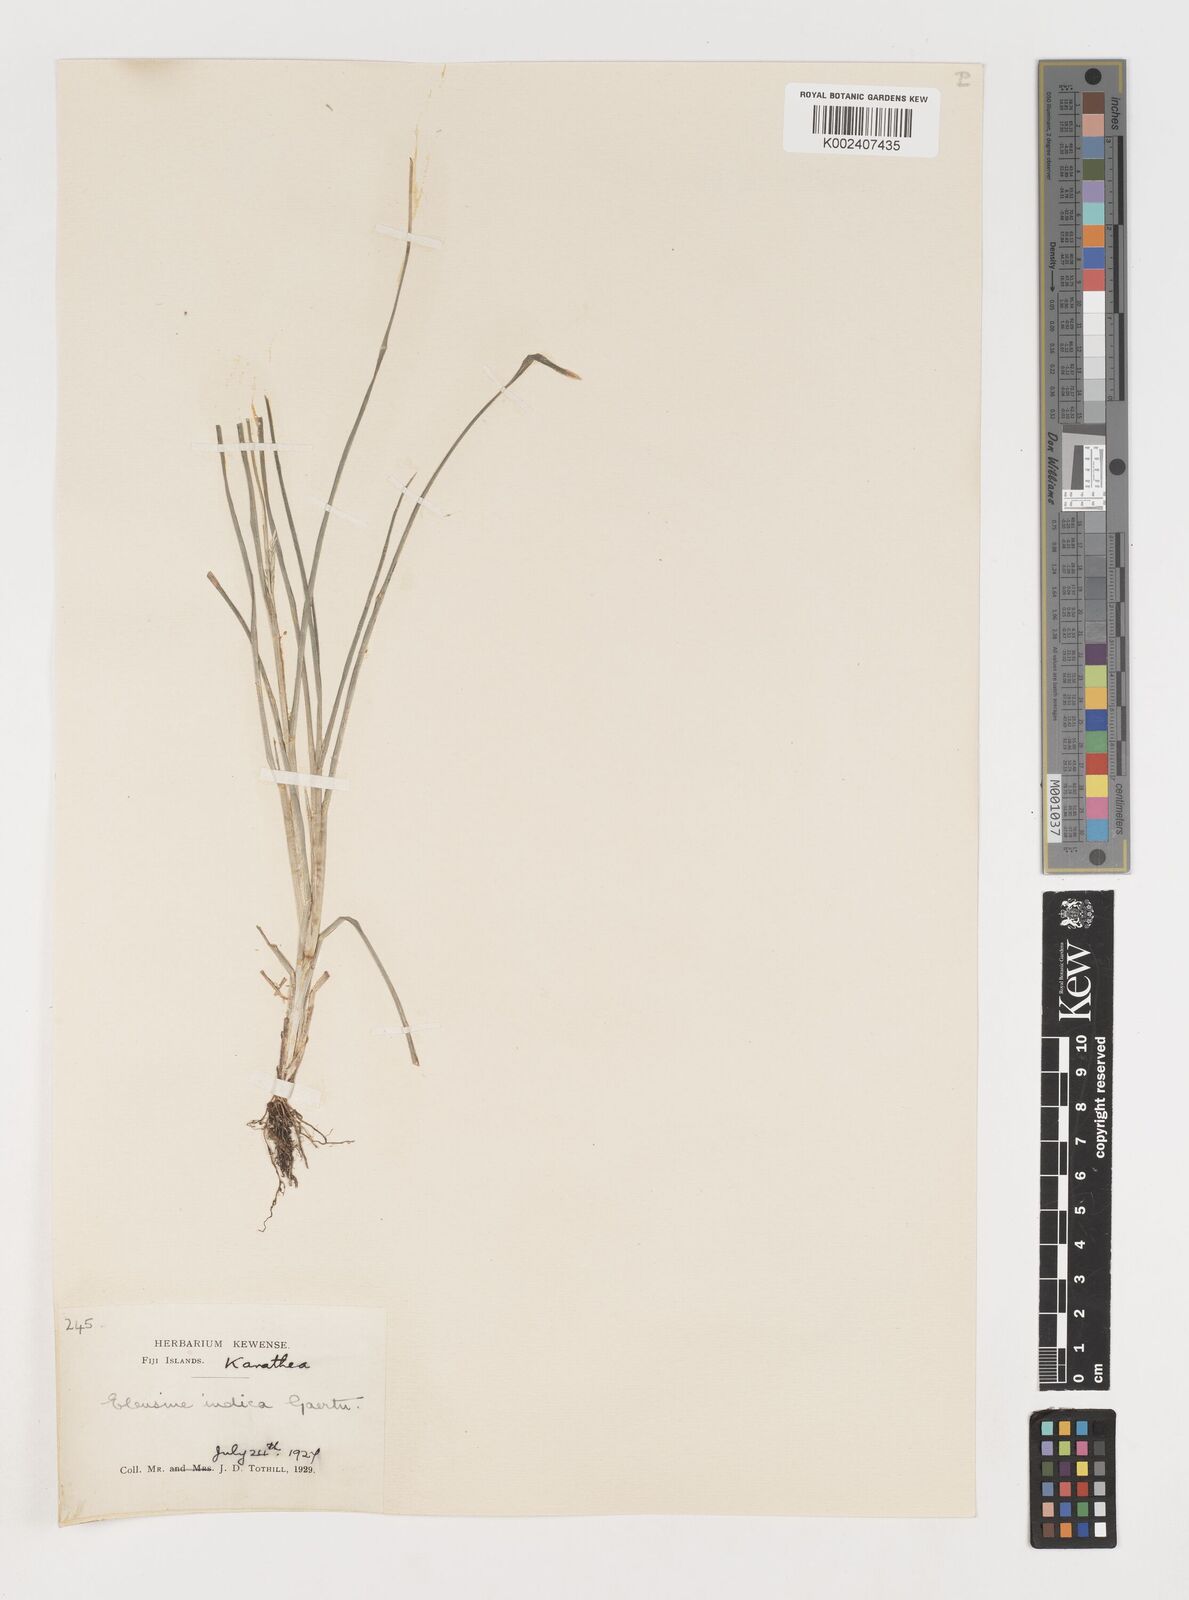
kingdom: Plantae
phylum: Tracheophyta
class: Liliopsida
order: Poales
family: Poaceae
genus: Eleusine
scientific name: Eleusine indica
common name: Yard-grass
